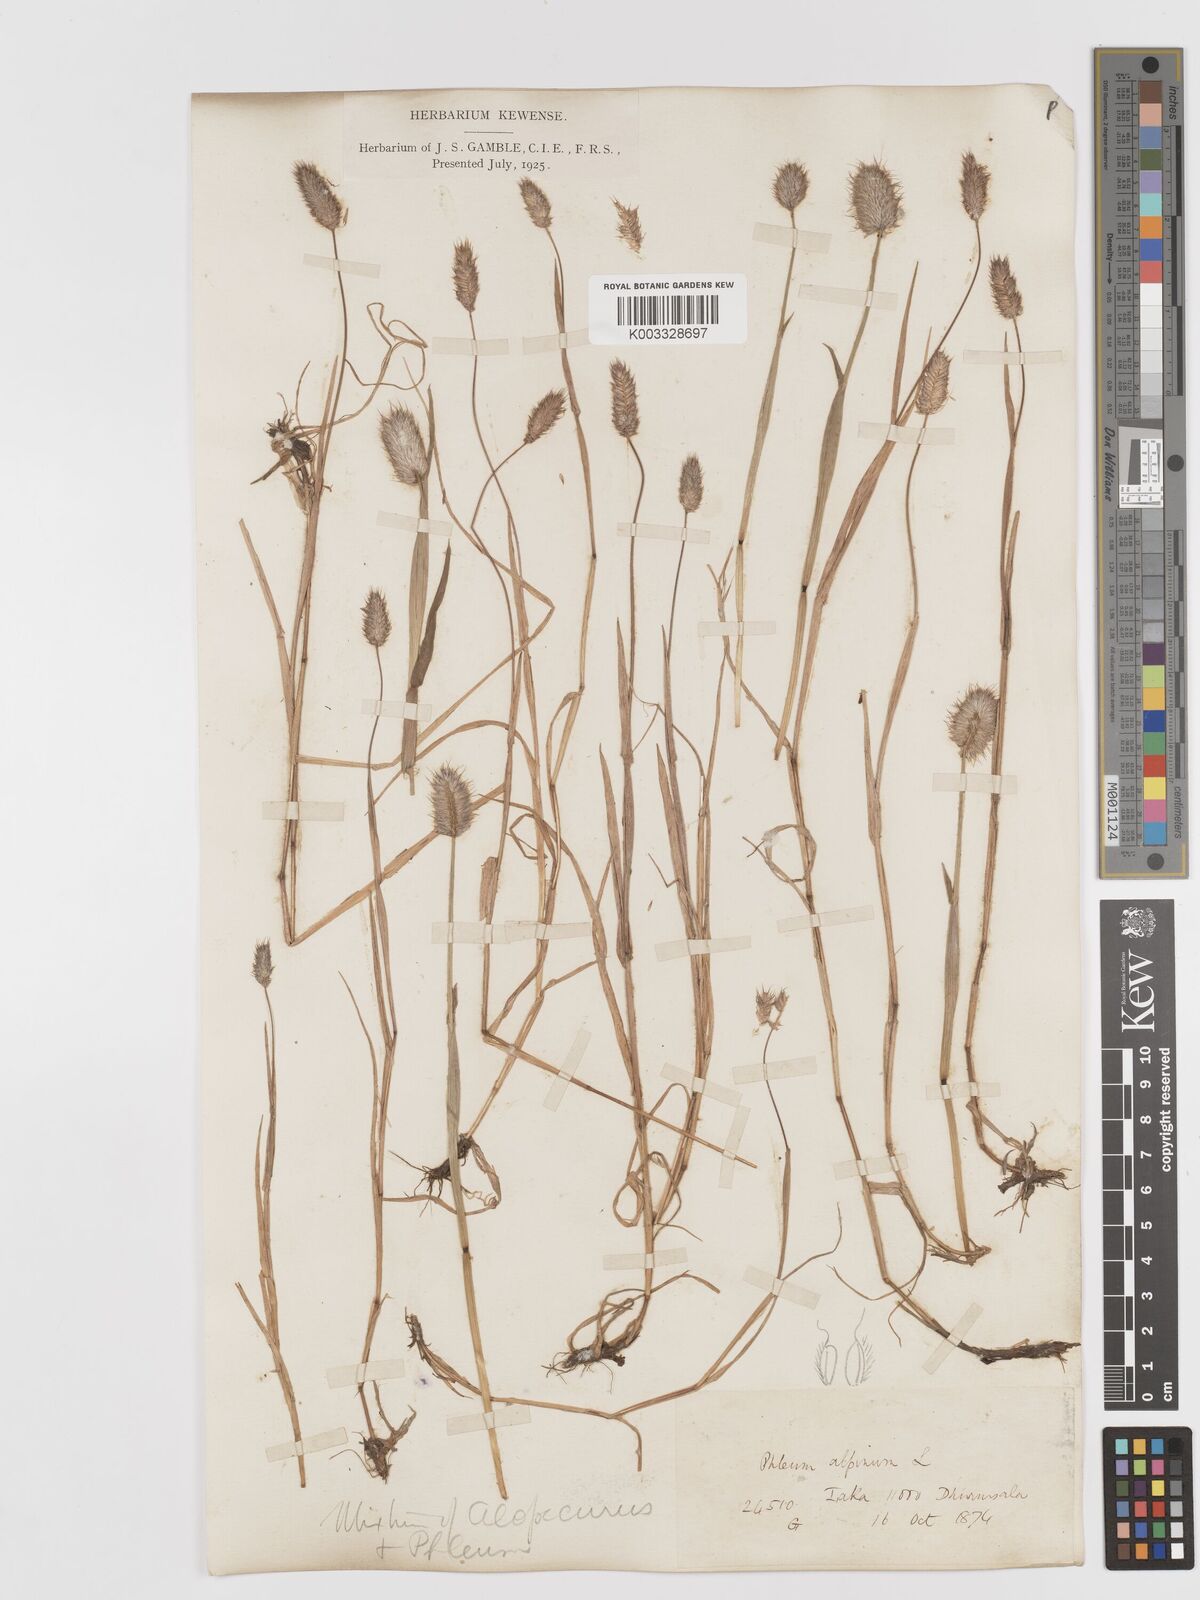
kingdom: Plantae
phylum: Tracheophyta
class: Liliopsida
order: Poales
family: Poaceae
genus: Phleum
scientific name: Phleum alpinum
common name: Alpine cat's-tail
